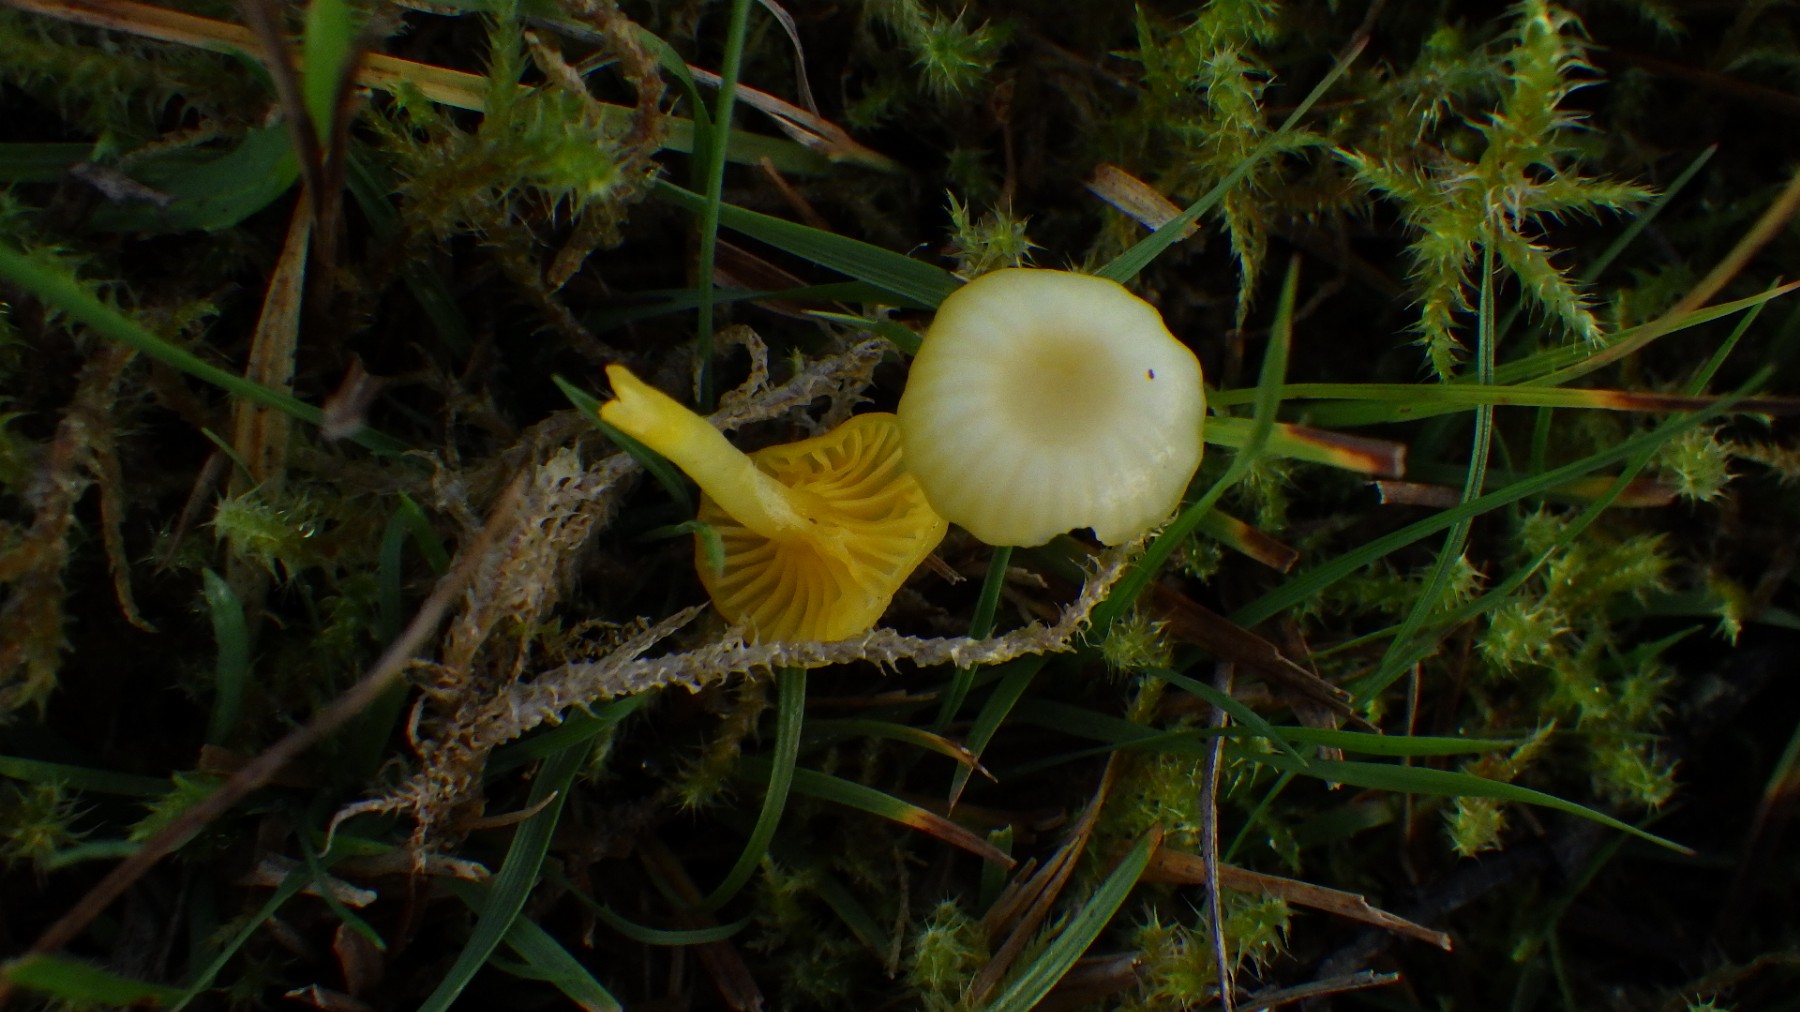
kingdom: Fungi
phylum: Basidiomycota
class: Agaricomycetes
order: Hymenochaetales
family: Rickenellaceae
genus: Rickenella
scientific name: Rickenella fibula
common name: orange mosnavlehat
